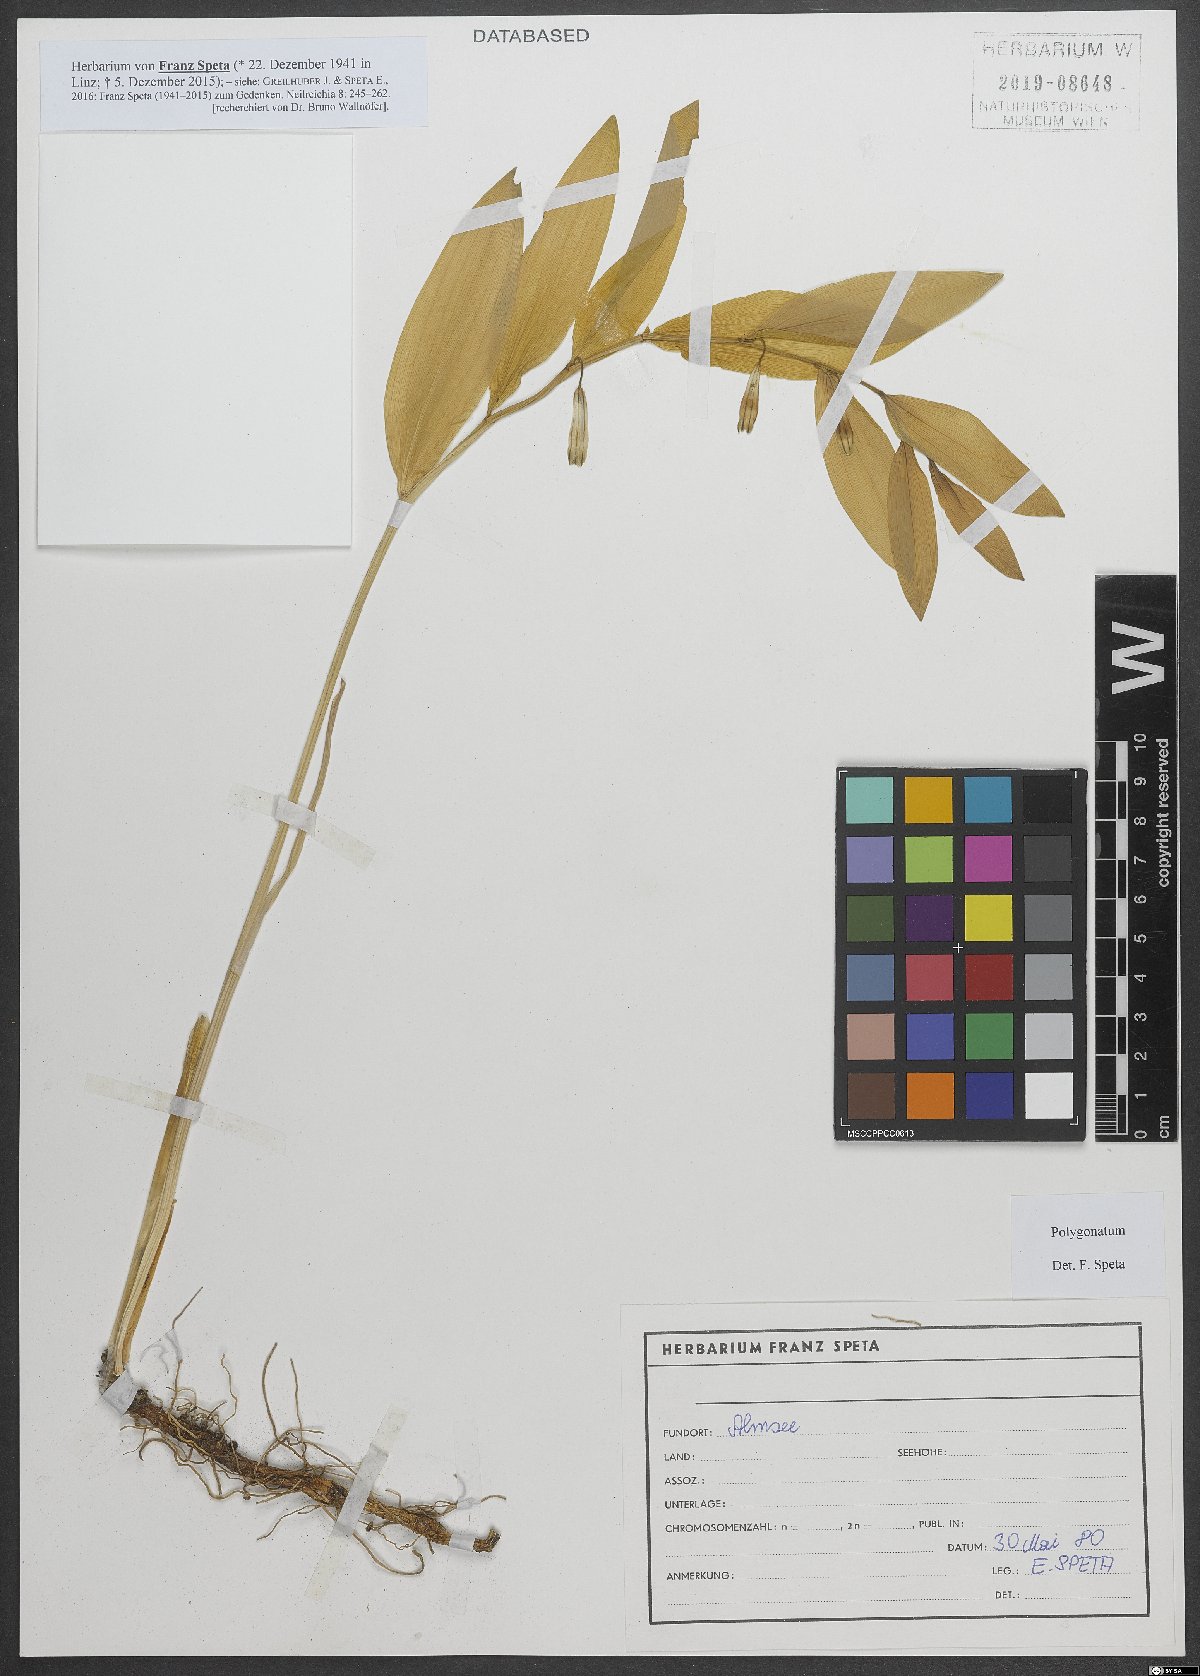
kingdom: Plantae
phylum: Tracheophyta
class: Liliopsida
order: Asparagales
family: Asparagaceae
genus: Polygonatum
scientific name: Polygonatum
